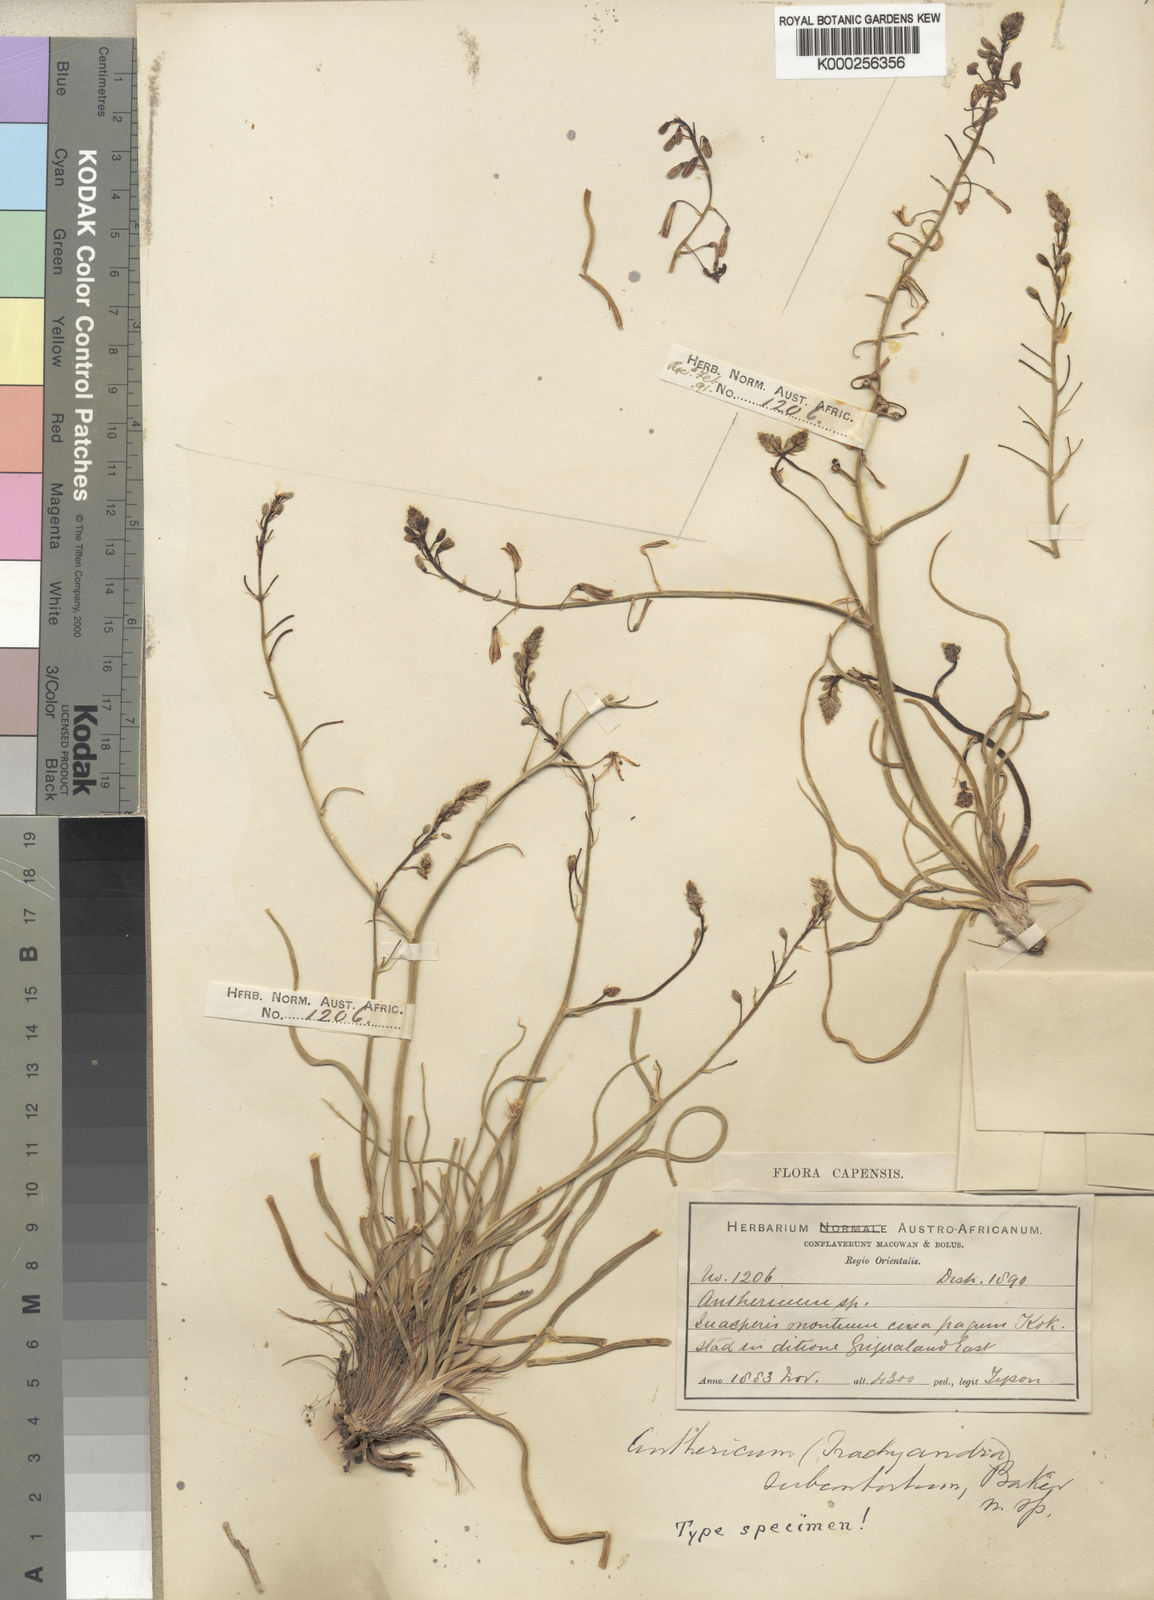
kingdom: Plantae
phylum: Tracheophyta
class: Liliopsida
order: Asparagales
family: Asphodelaceae
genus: Trachyandra
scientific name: Trachyandra asperata
